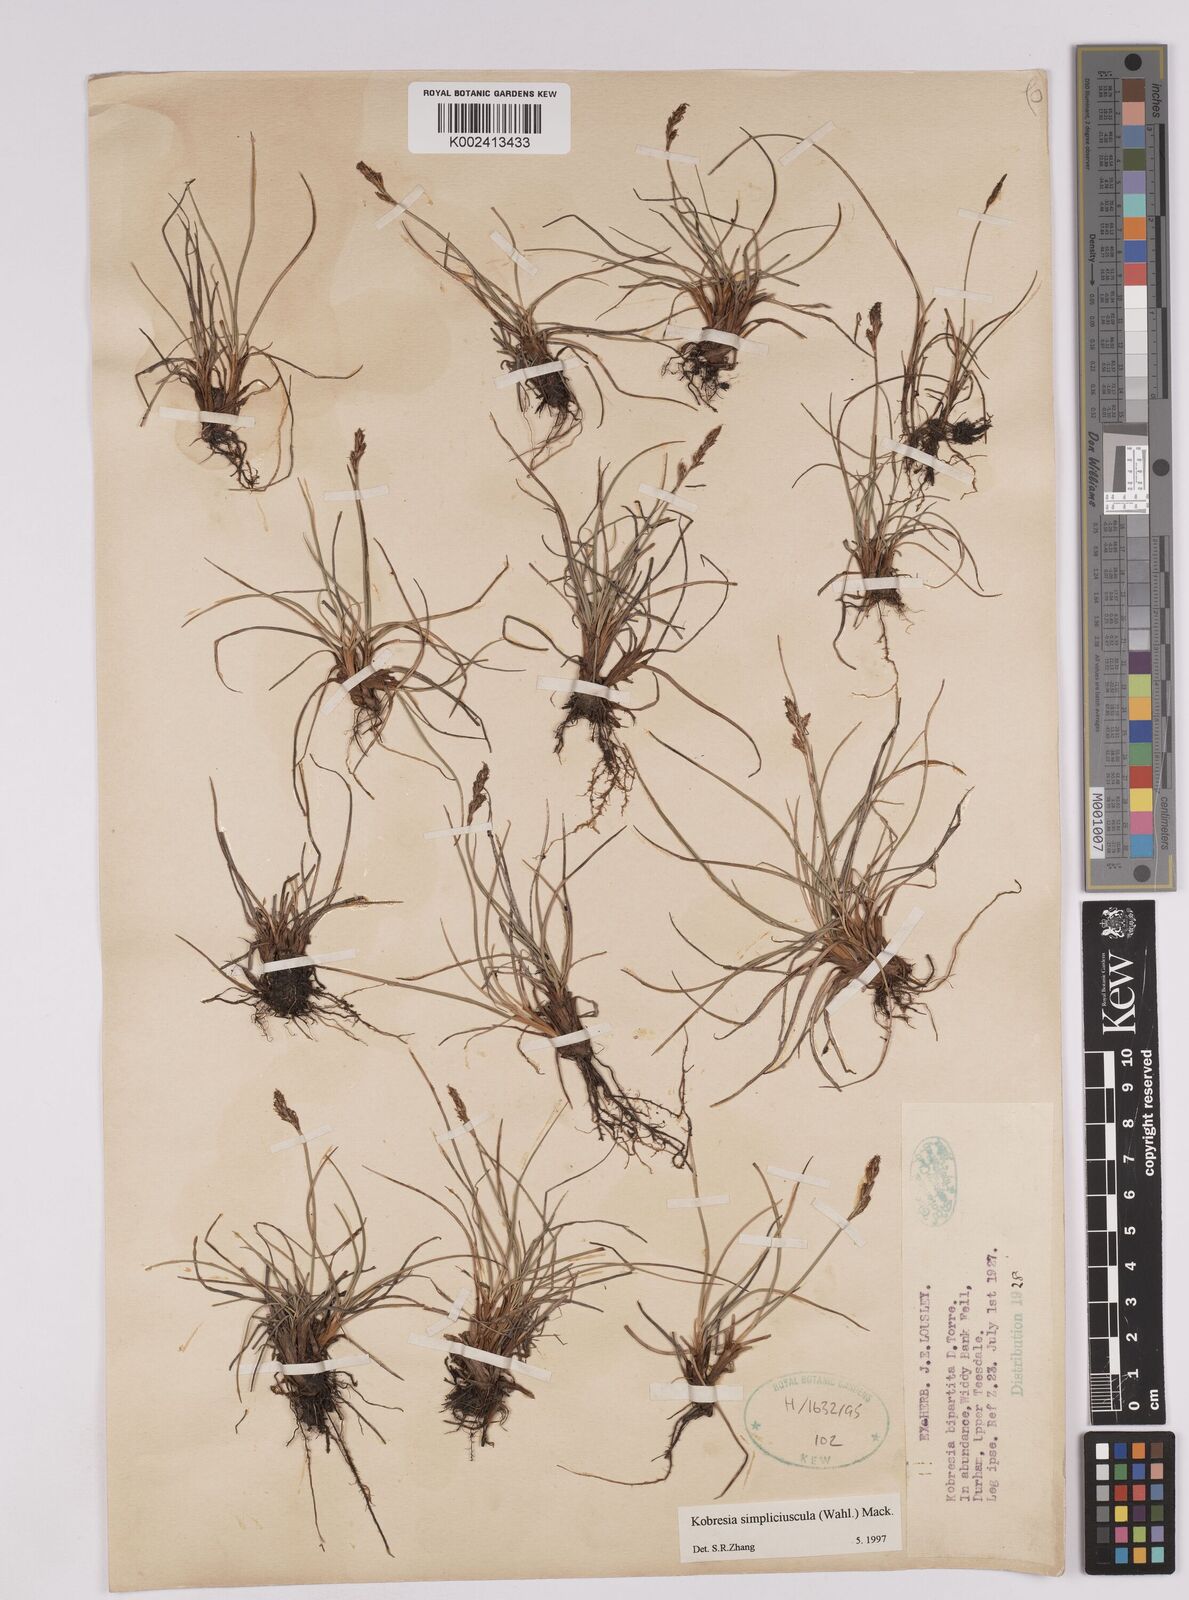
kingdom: Plantae
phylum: Tracheophyta
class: Liliopsida
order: Poales
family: Cyperaceae
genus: Carex
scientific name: Carex simpliciuscula
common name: Simple bog sedge
